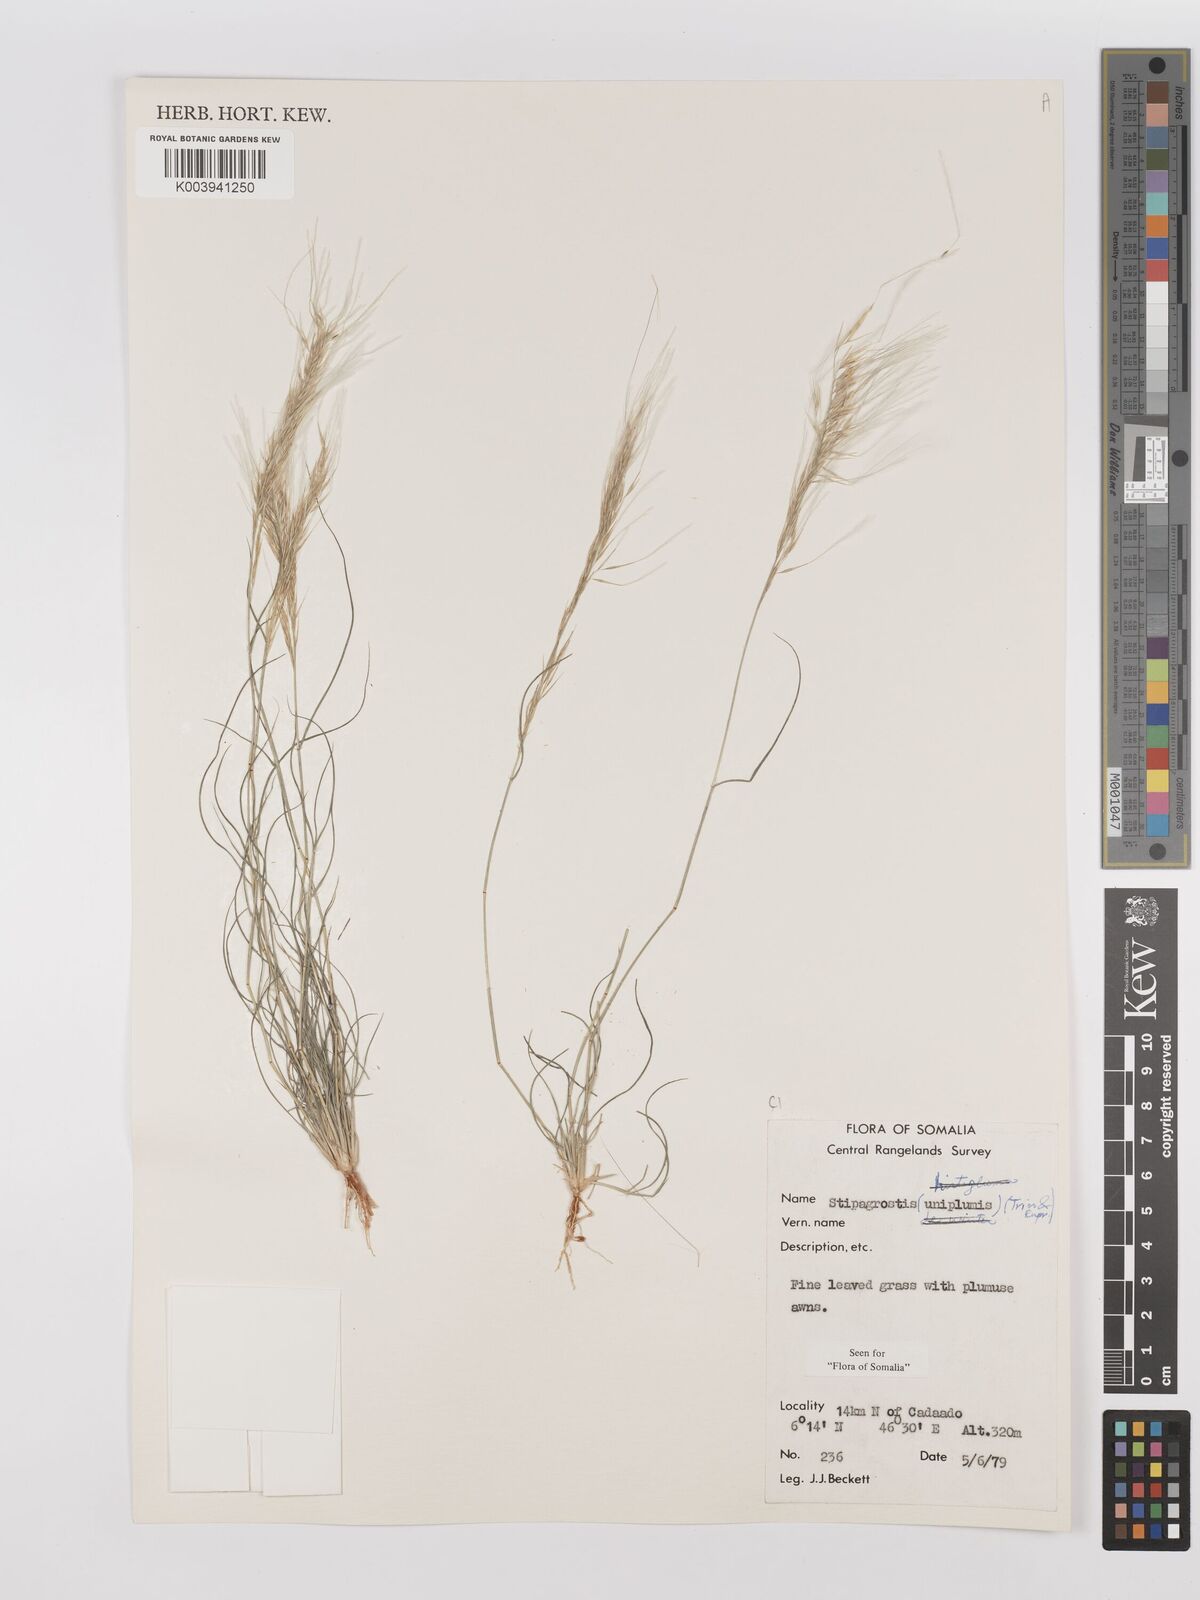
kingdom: Plantae
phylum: Tracheophyta
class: Liliopsida
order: Poales
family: Poaceae
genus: Stipagrostis
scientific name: Stipagrostis uniplumis
